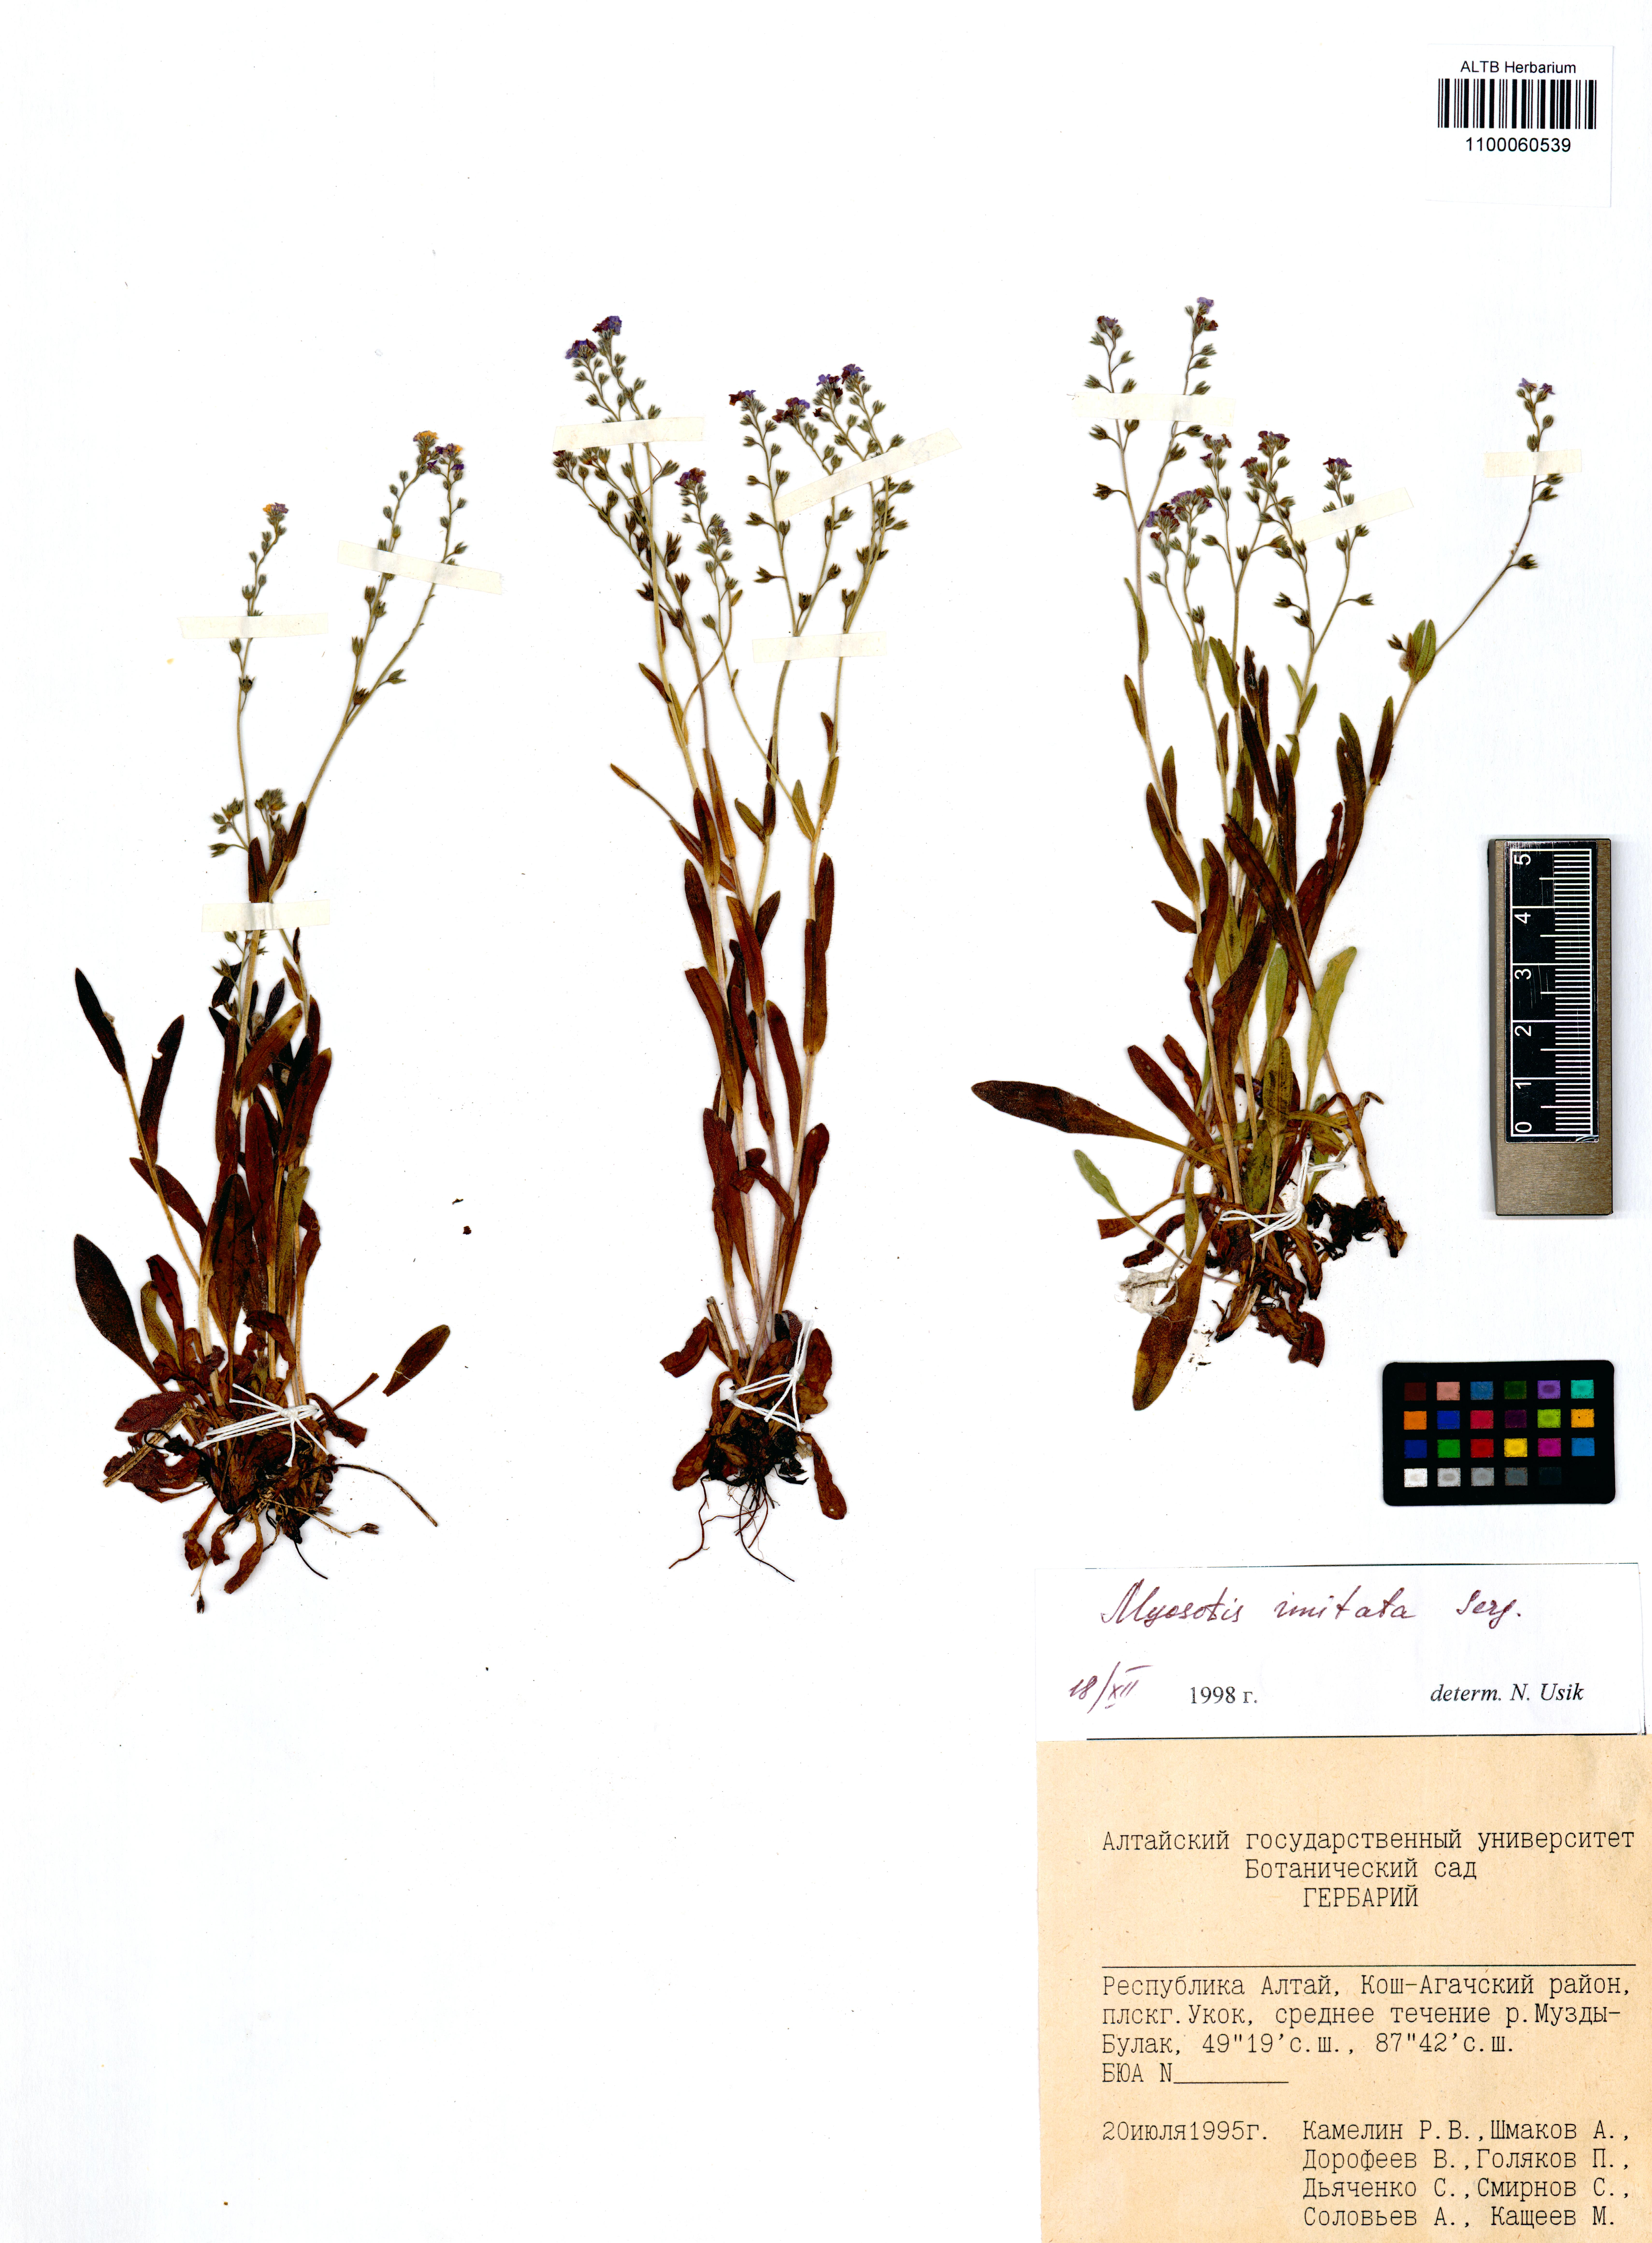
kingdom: Plantae
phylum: Tracheophyta
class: Magnoliopsida
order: Boraginales
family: Boraginaceae
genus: Myosotis
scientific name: Myosotis imitata
